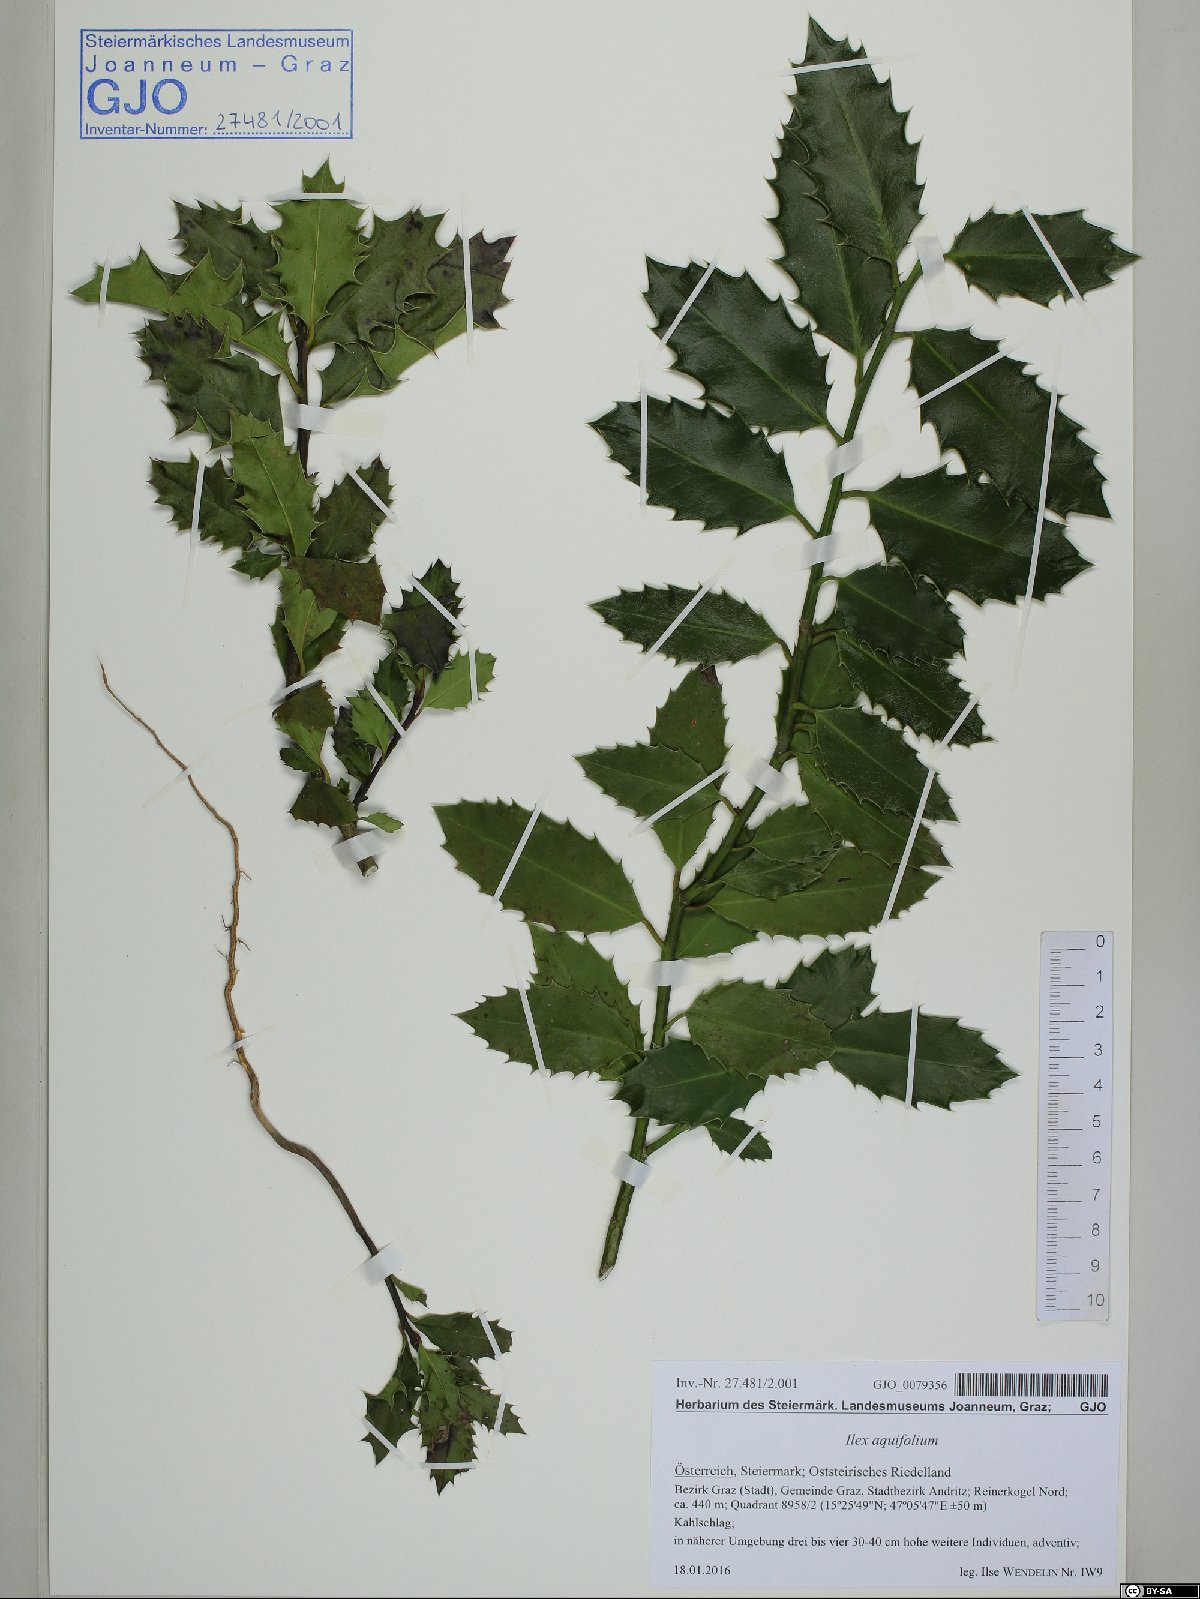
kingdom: Plantae
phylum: Tracheophyta
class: Magnoliopsida
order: Aquifoliales
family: Aquifoliaceae
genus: Ilex
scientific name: Ilex aquifolium
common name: English holly
